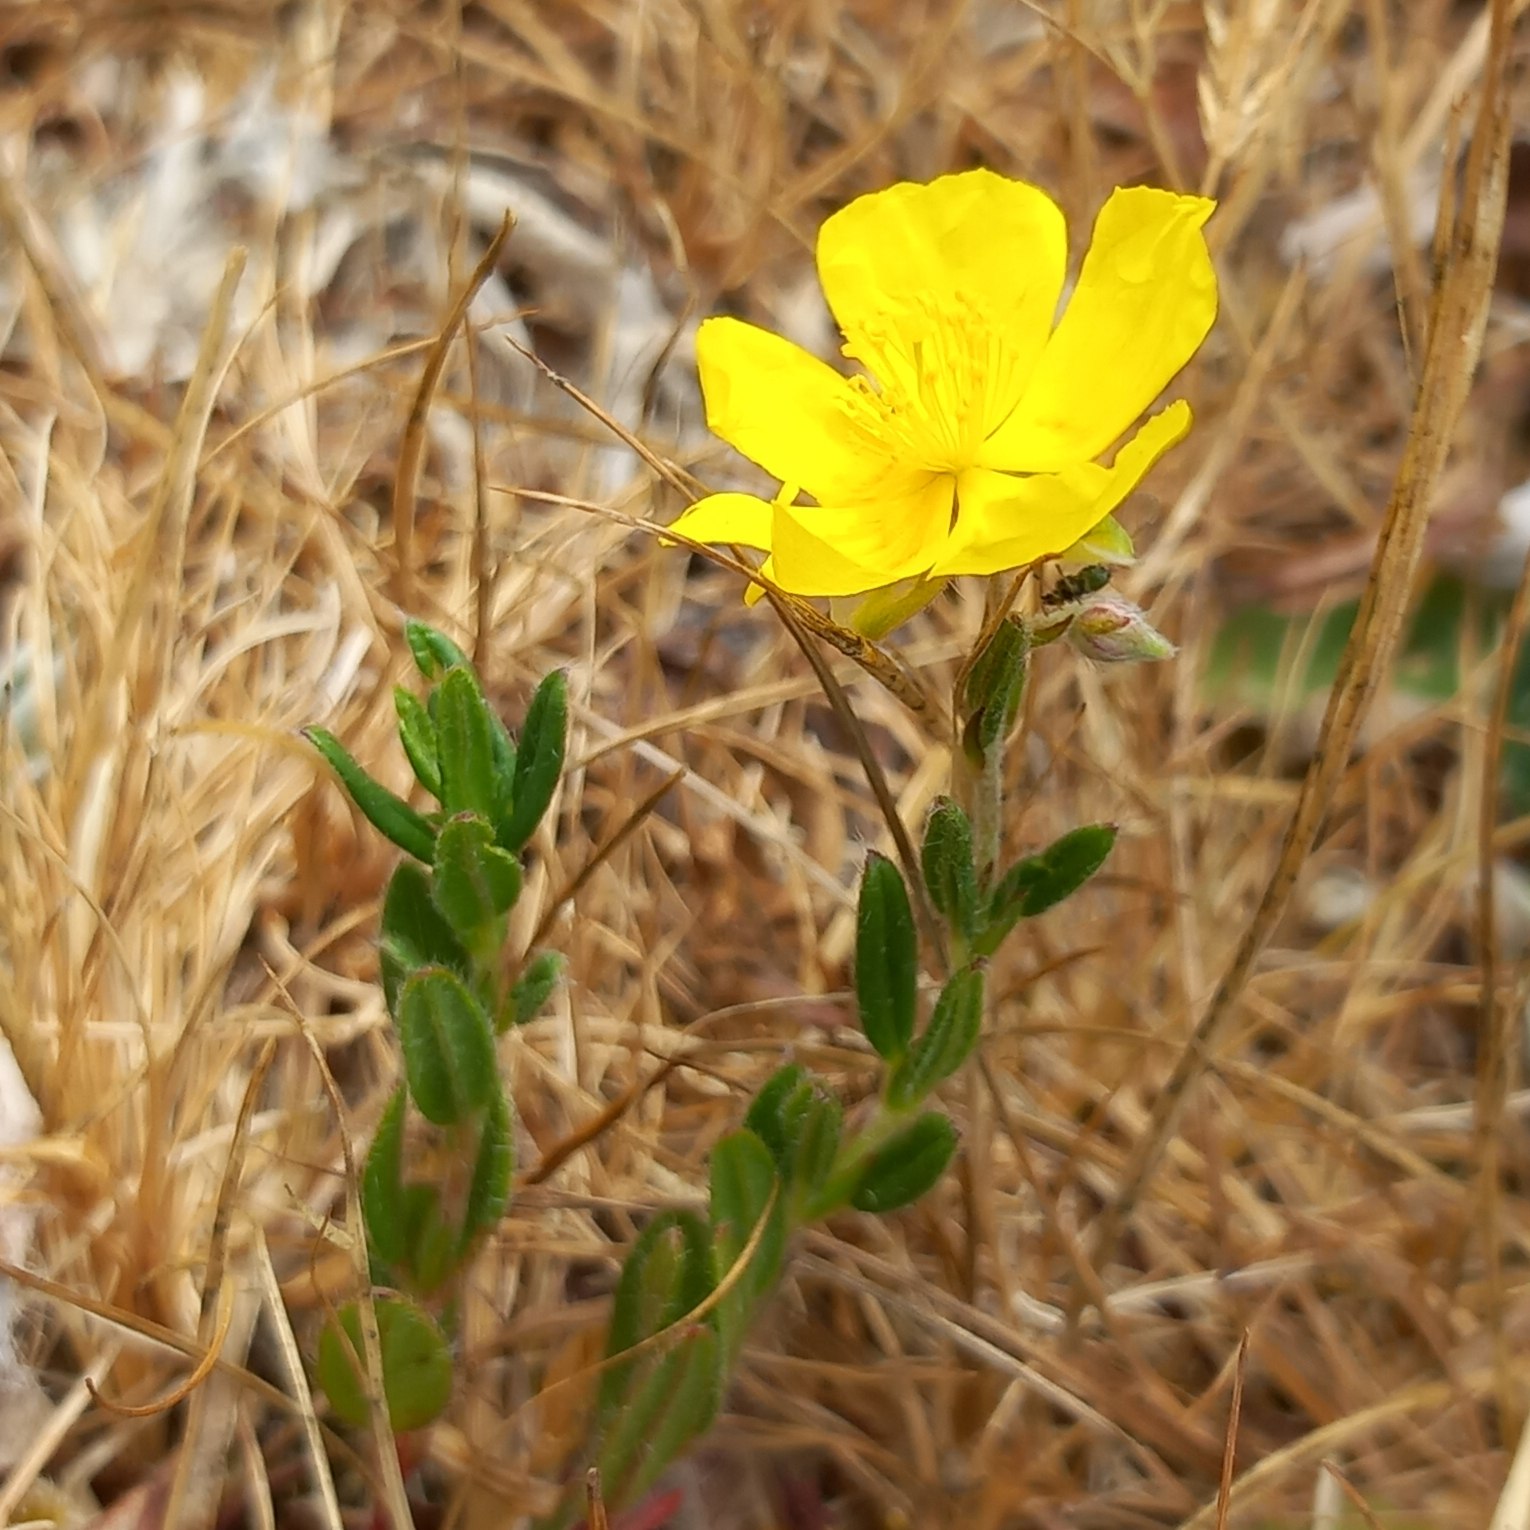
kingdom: Plantae
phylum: Tracheophyta
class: Magnoliopsida
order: Malvales
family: Cistaceae
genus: Helianthemum
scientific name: Helianthemum nummularium
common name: Bakke-soløje
